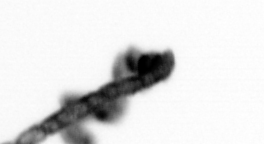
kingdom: Chromista
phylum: Ochrophyta
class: Bacillariophyceae
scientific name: Bacillariophyceae
